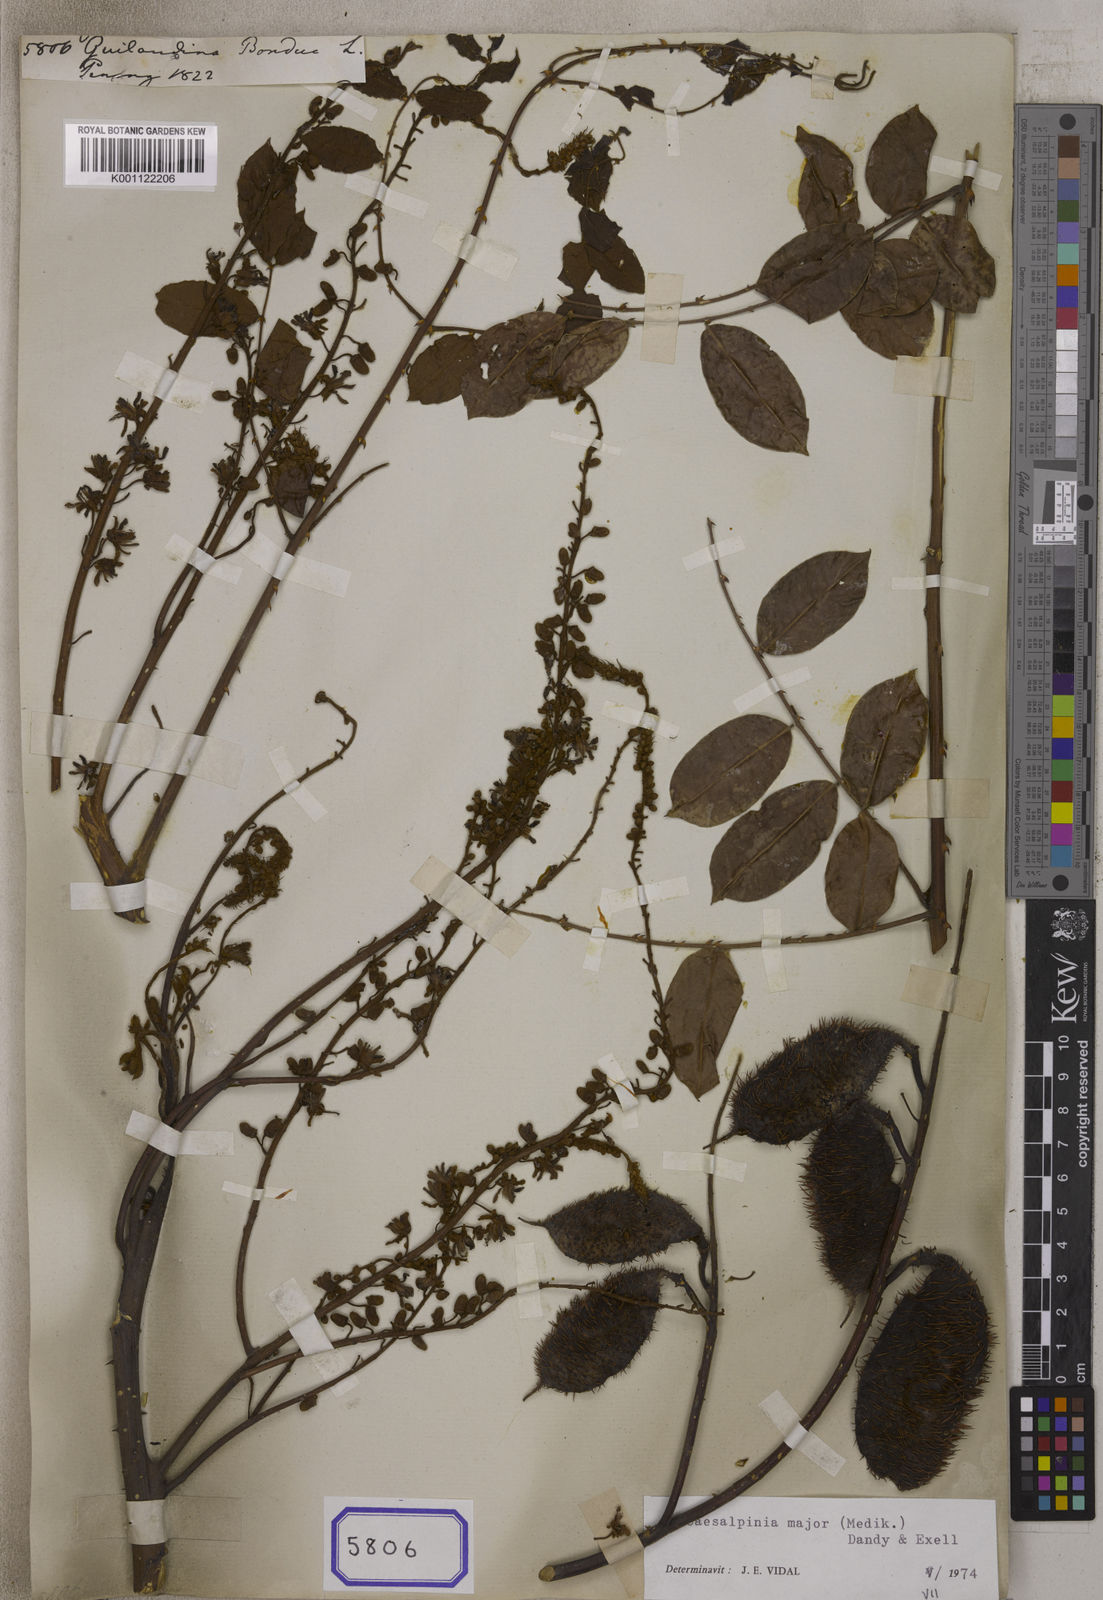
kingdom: Plantae
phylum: Tracheophyta
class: Magnoliopsida
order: Fabales
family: Fabaceae
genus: Guilandina
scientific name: Guilandina bonduc
